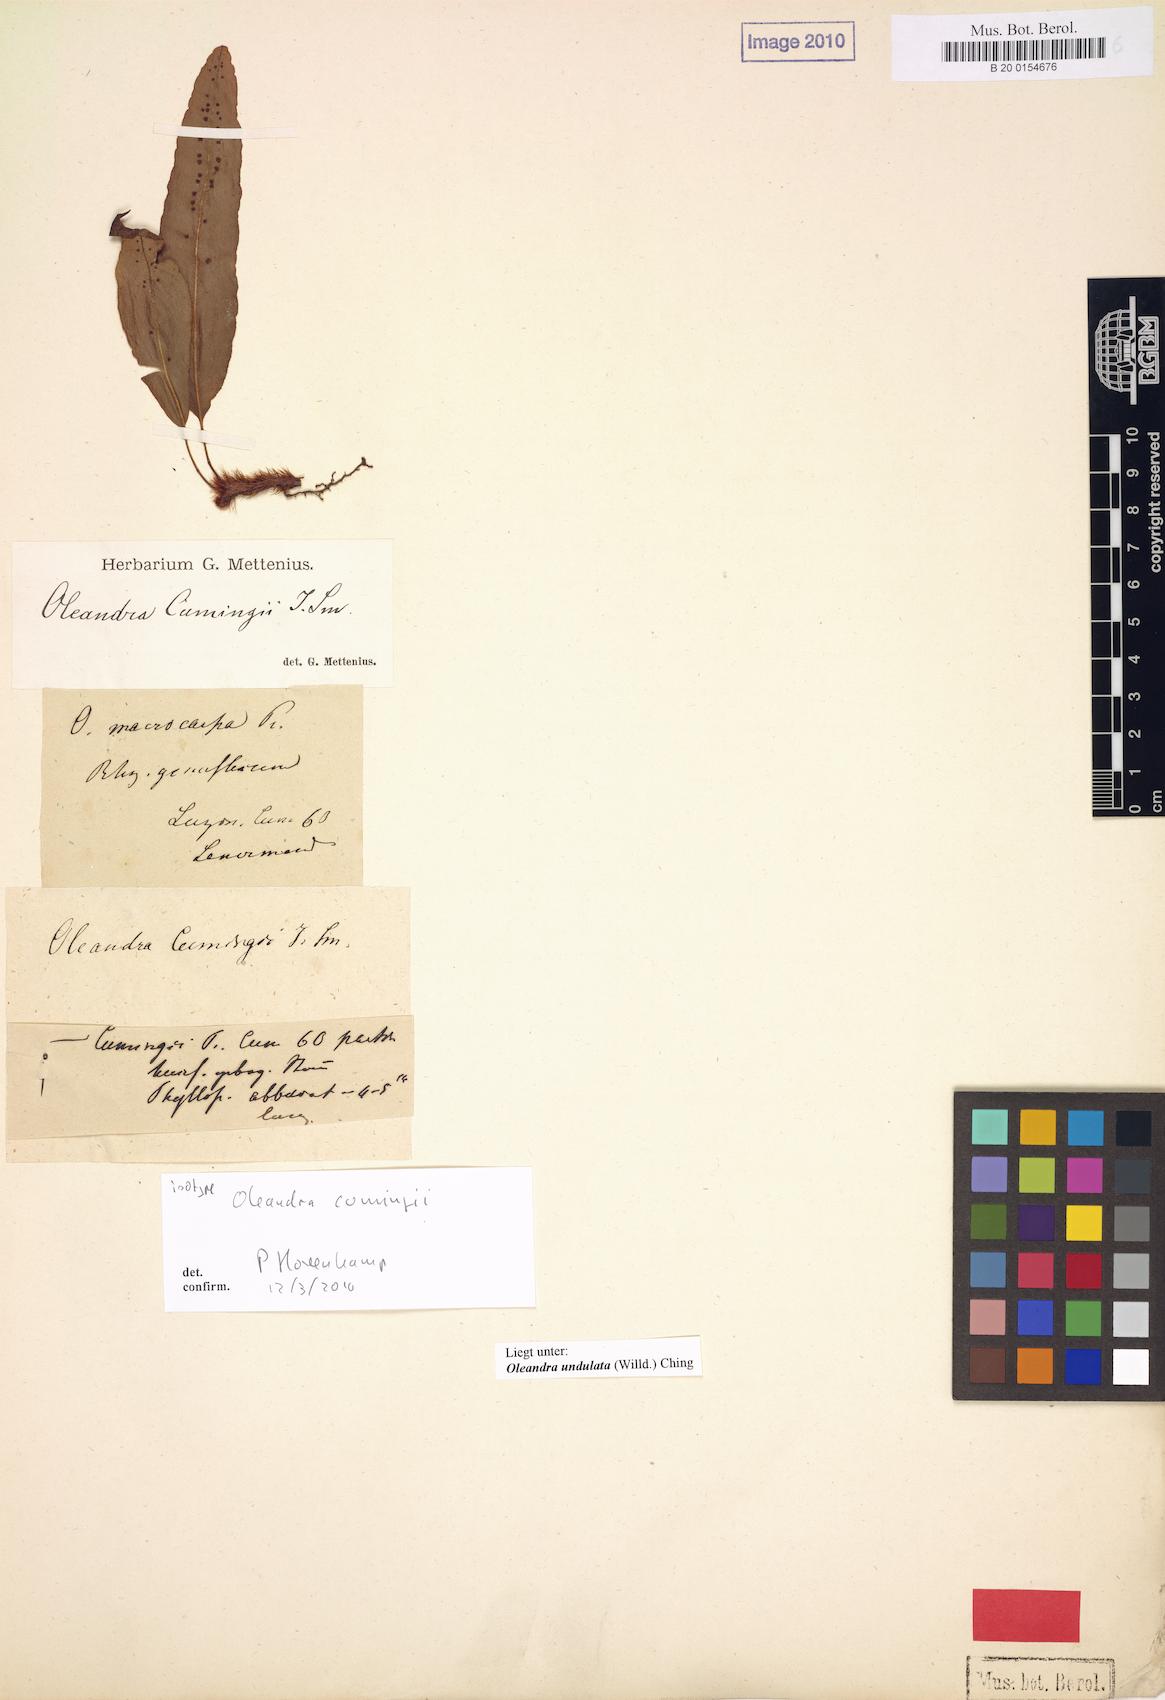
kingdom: Plantae
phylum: Tracheophyta
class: Polypodiopsida
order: Polypodiales
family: Oleandraceae
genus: Oleandra
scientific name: Oleandra undulata
